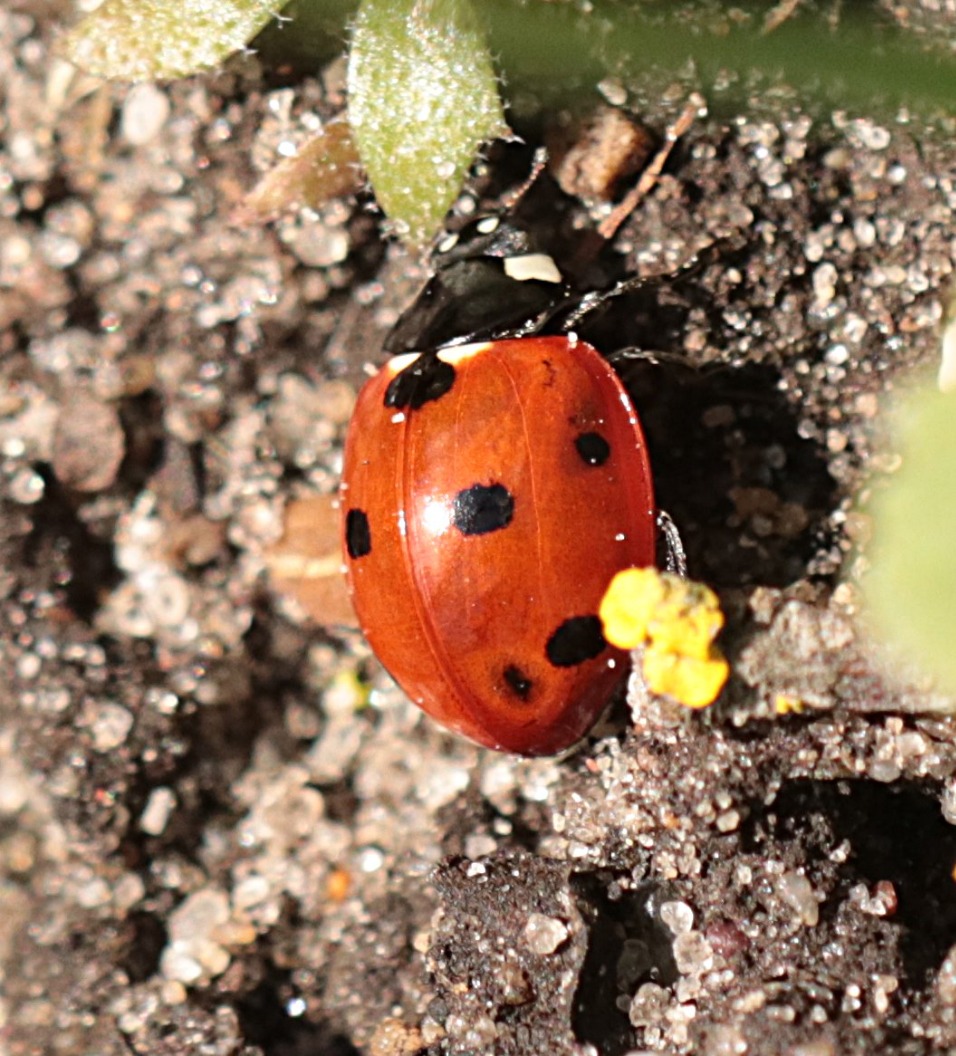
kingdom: Animalia
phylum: Arthropoda
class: Insecta
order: Coleoptera
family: Coccinellidae
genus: Coccinella
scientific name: Coccinella septempunctata
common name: Syvplettet mariehøne
